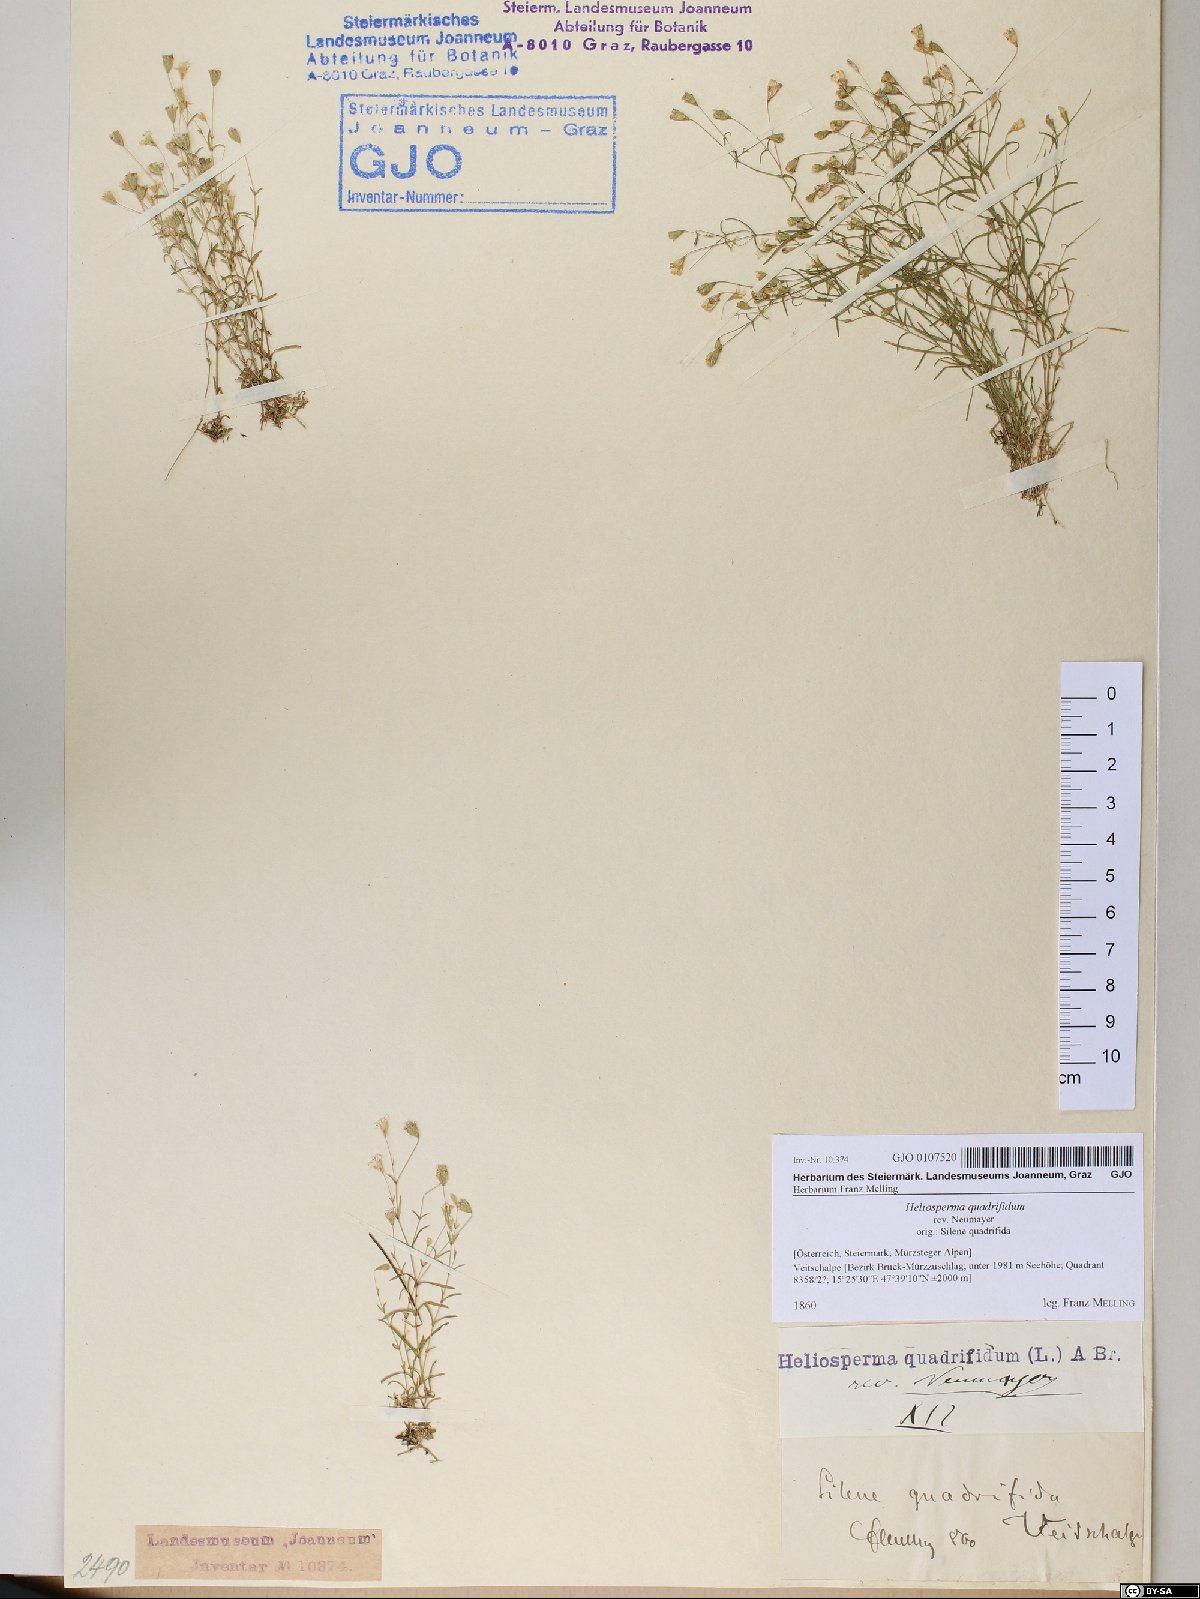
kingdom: Plantae
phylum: Tracheophyta
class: Magnoliopsida
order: Caryophyllales
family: Caryophyllaceae
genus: Heliosperma
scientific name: Heliosperma alpestre
